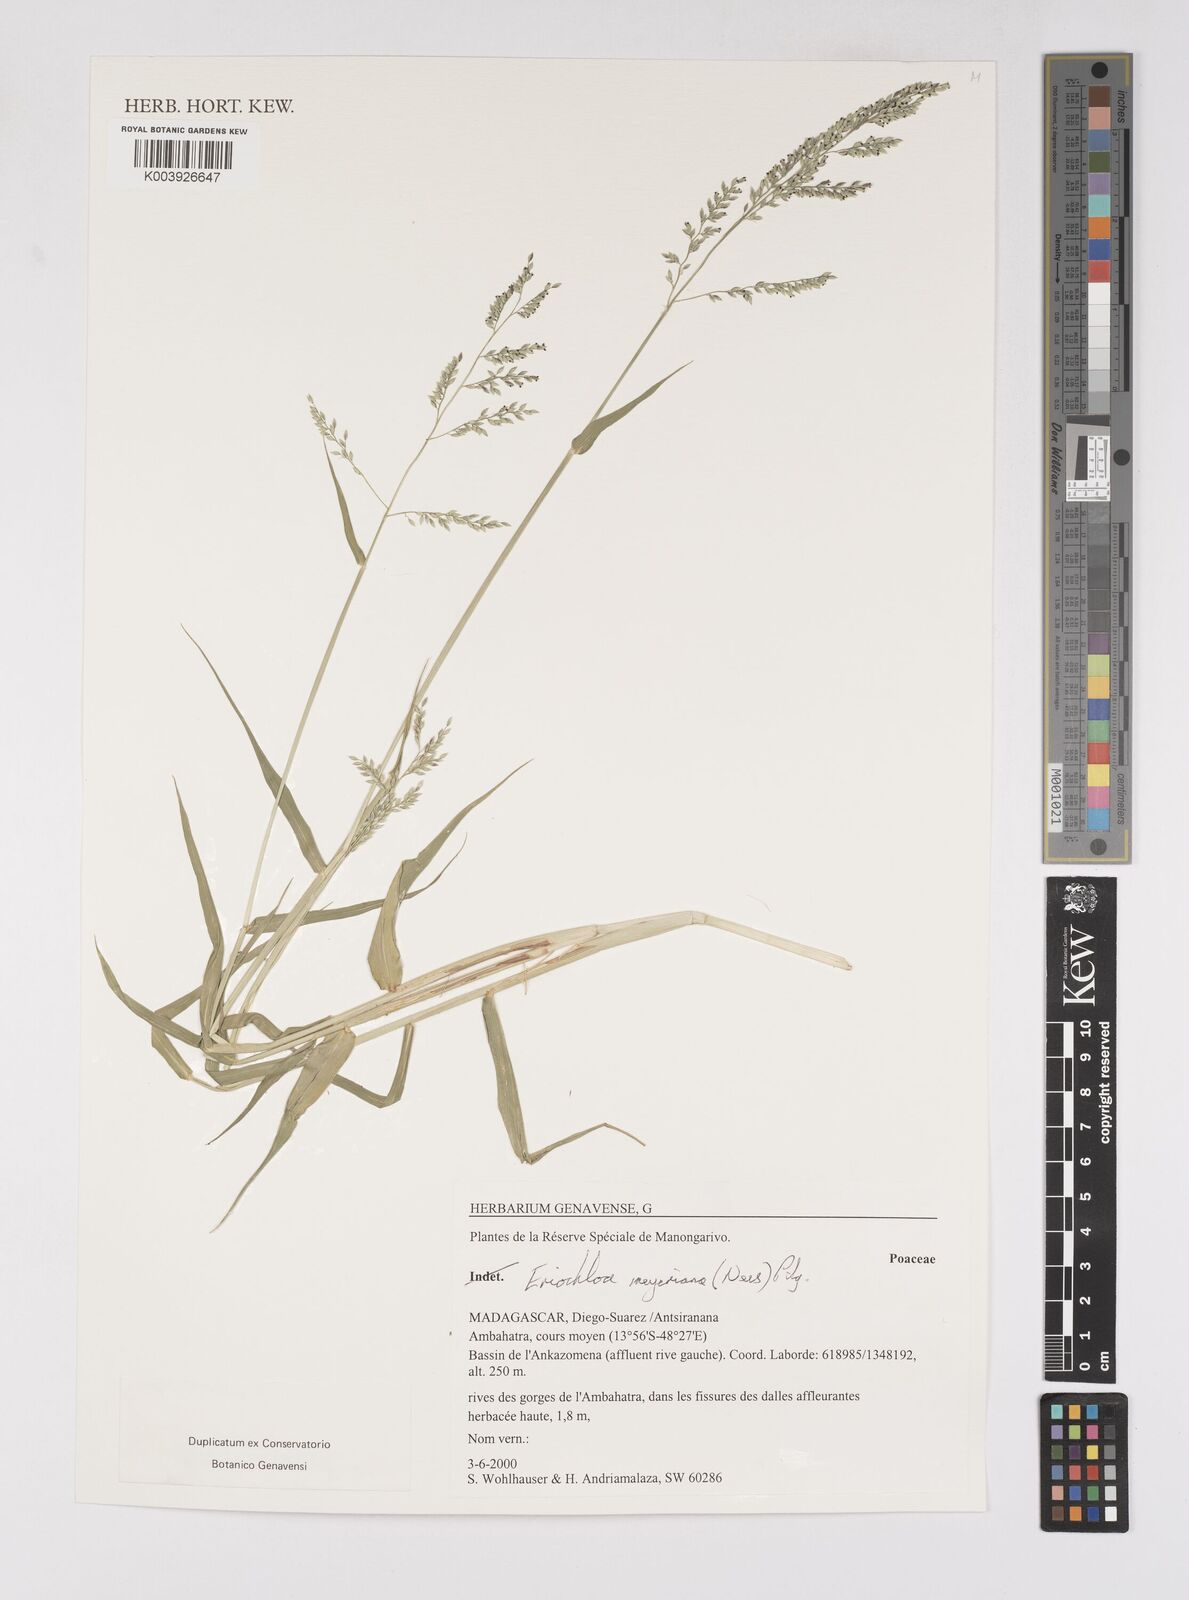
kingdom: Plantae
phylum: Tracheophyta
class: Liliopsida
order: Poales
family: Poaceae
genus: Eriochloa
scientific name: Eriochloa meyeriana
